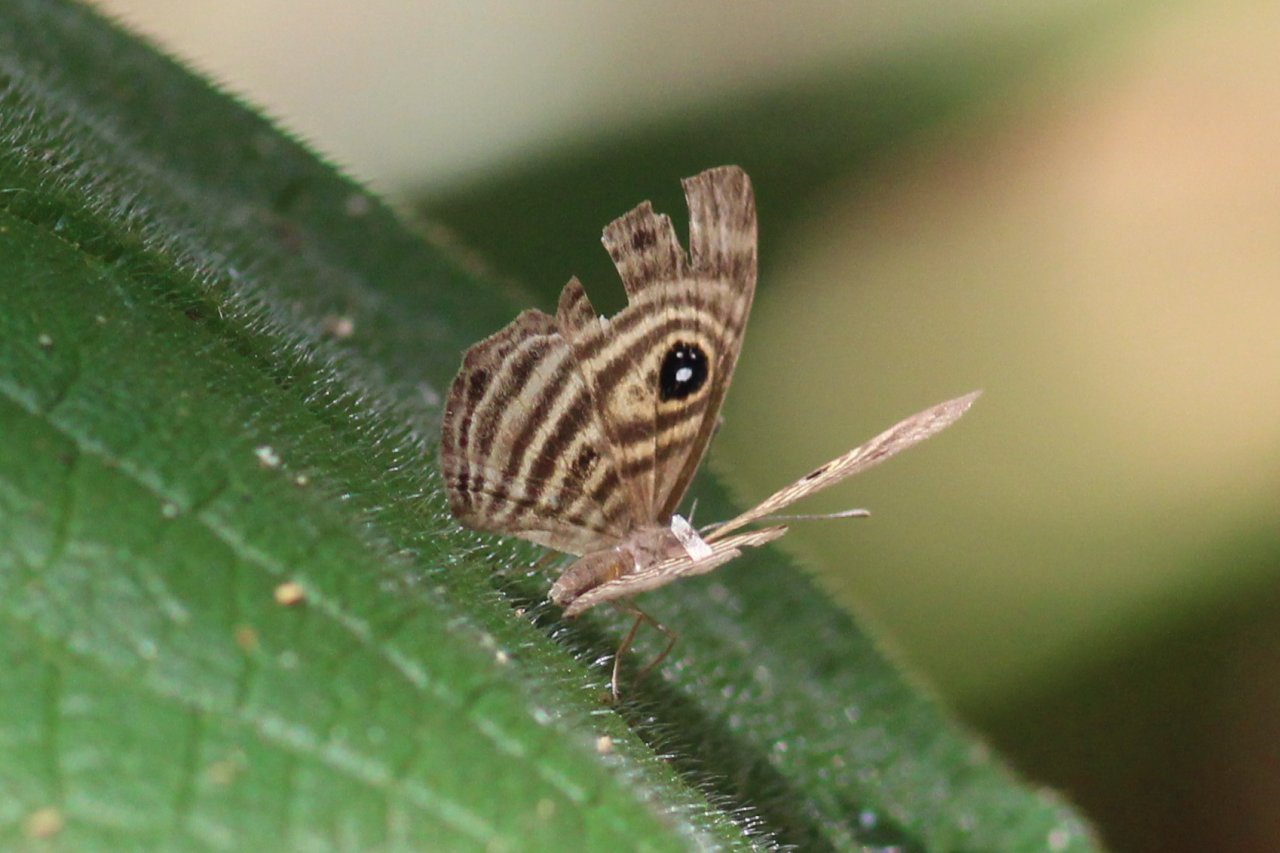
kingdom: Animalia
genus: Mesosemia
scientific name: Mesosemia hesperina
